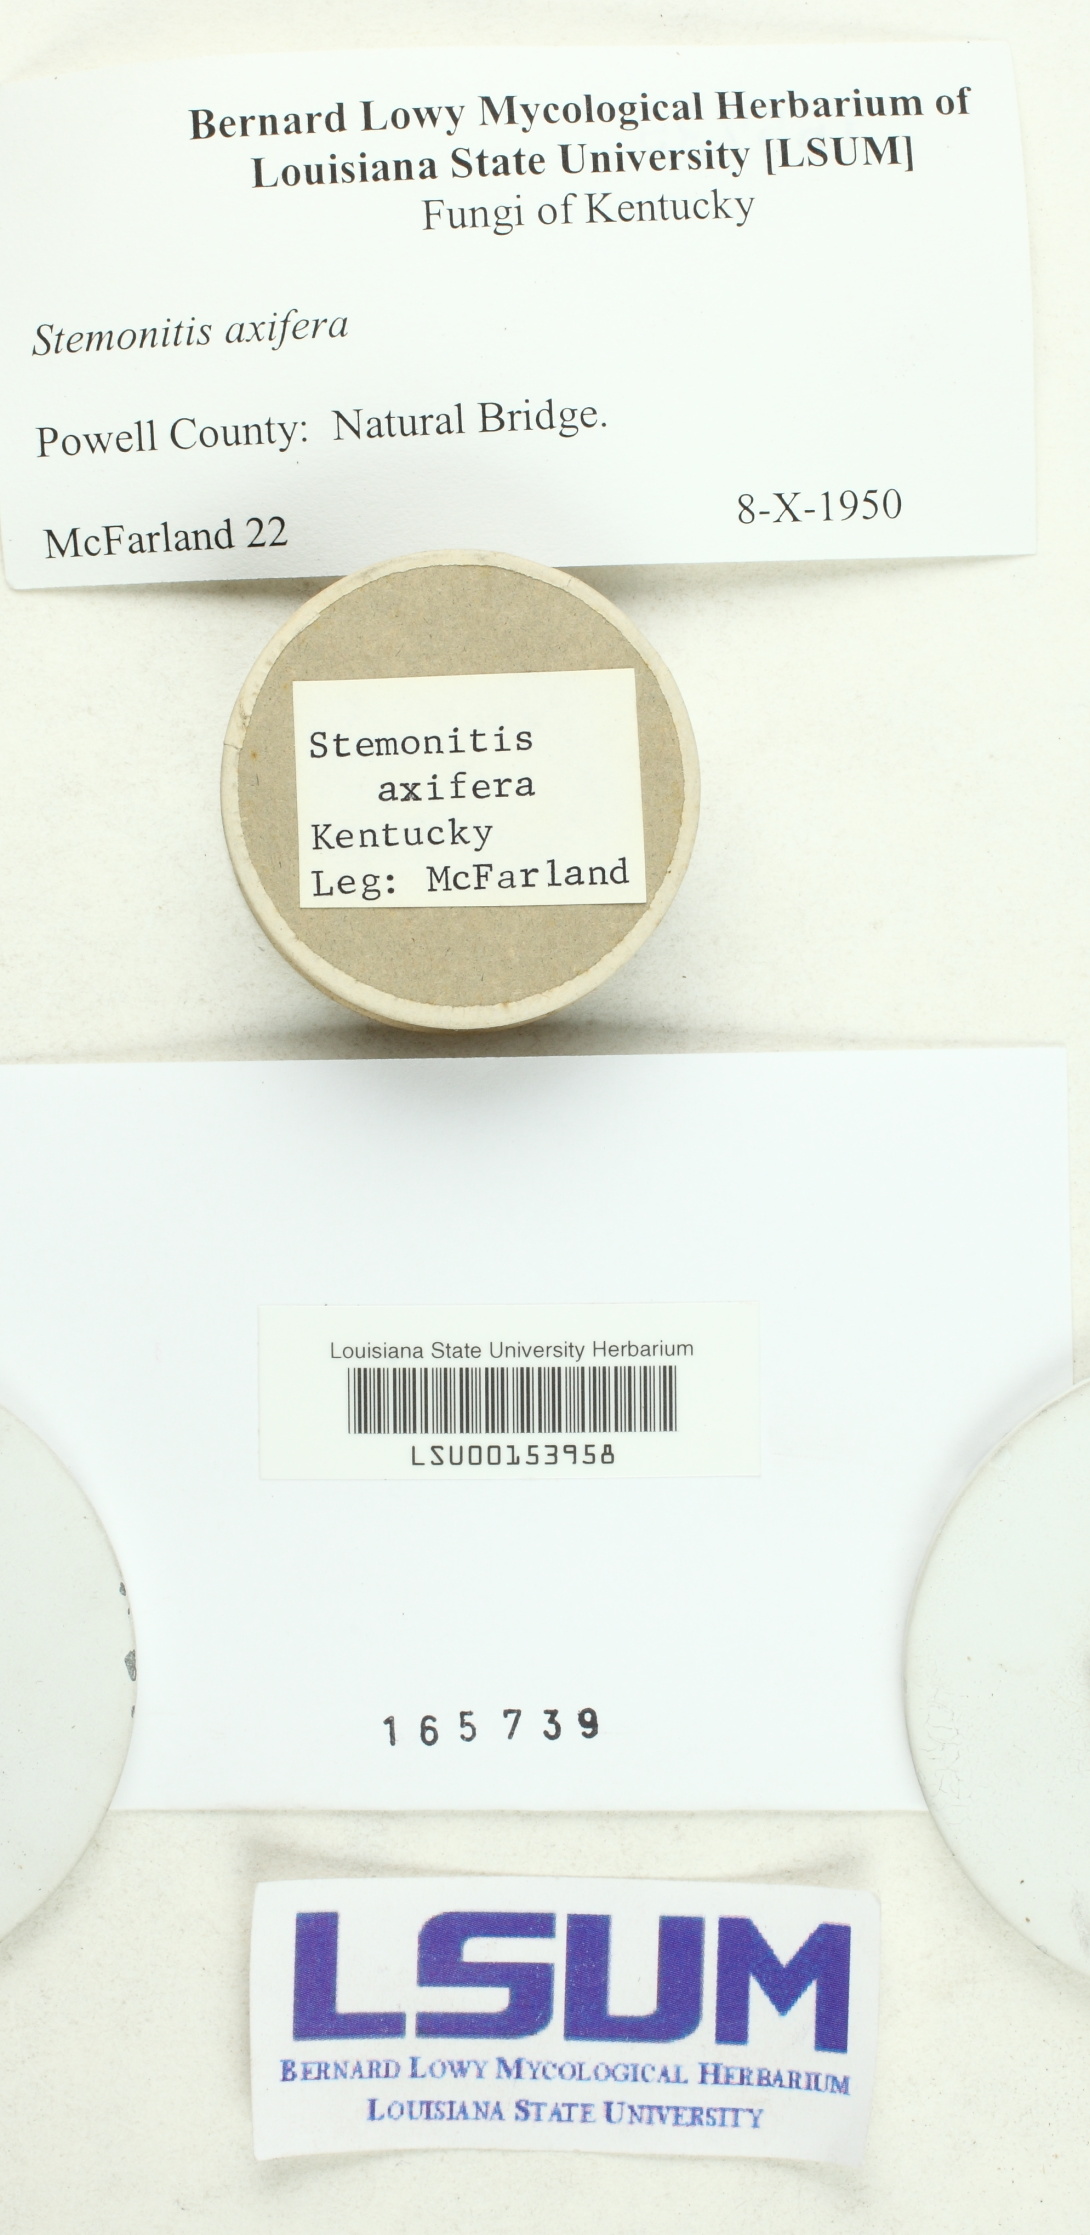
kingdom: Protozoa
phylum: Mycetozoa
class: Myxomycetes
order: Stemonitidales
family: Stemonitidaceae
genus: Stemonitis
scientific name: Stemonitis axifera
